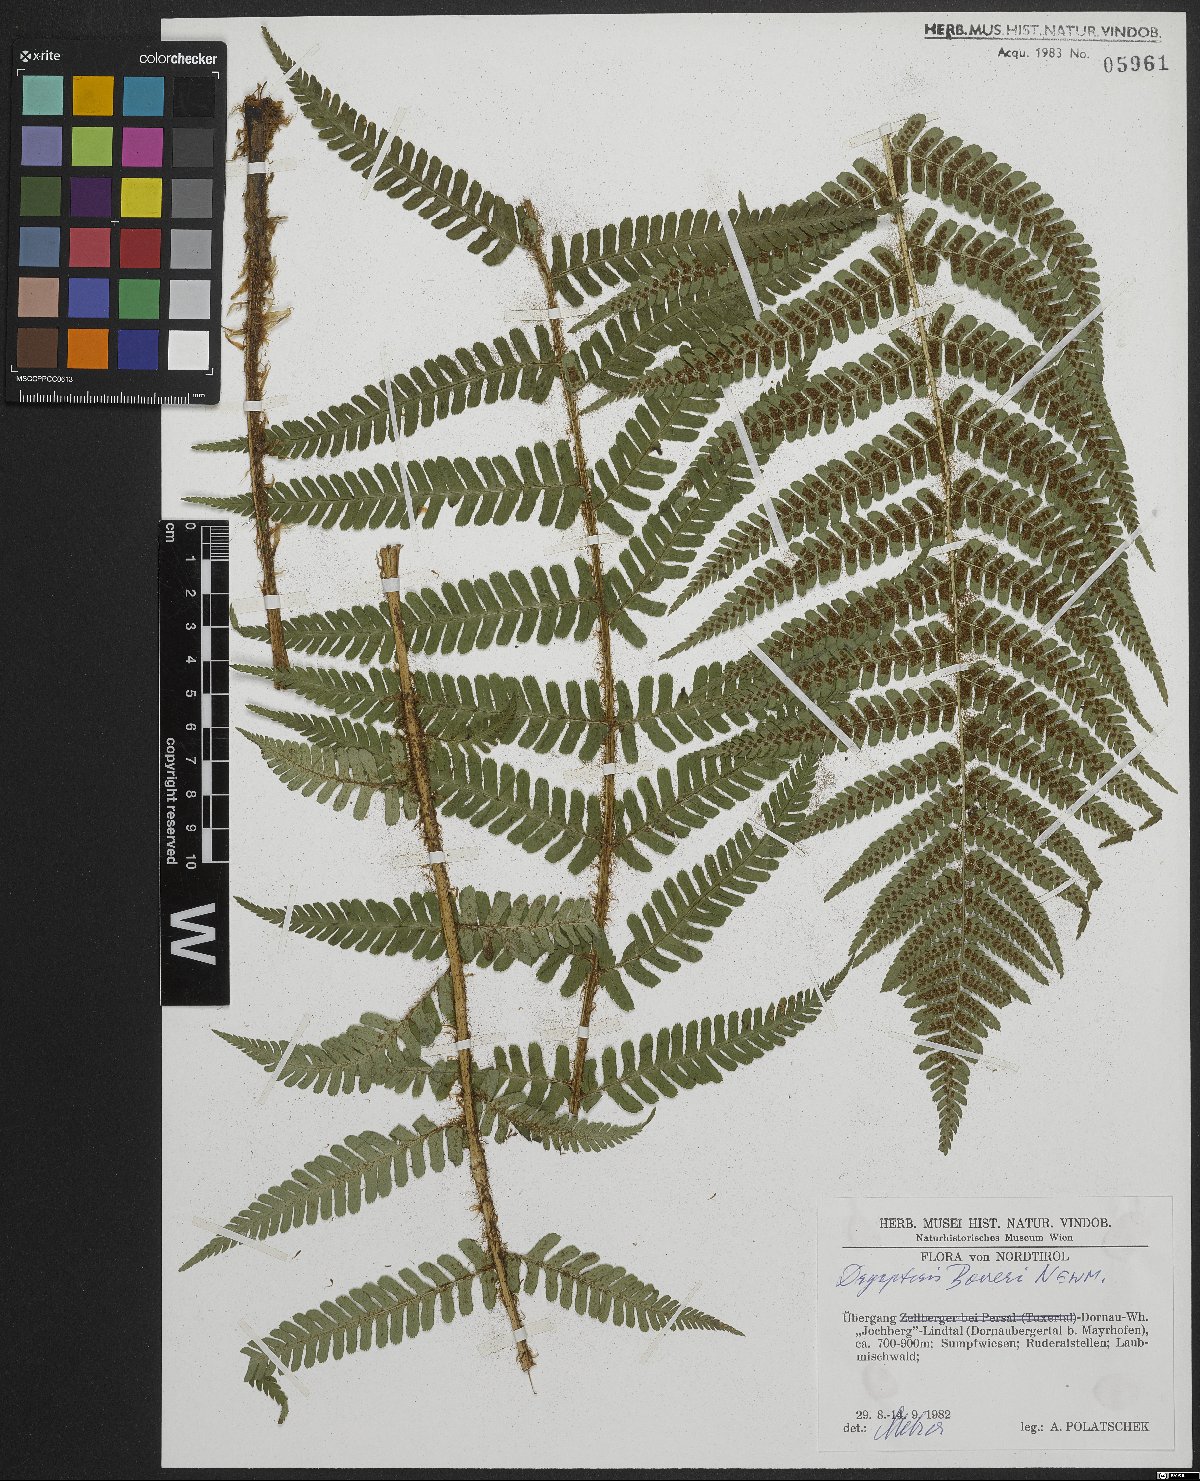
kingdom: Plantae
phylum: Tracheophyta
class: Polypodiopsida
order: Polypodiales
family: Dryopteridaceae
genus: Dryopteris
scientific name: Dryopteris borreri
